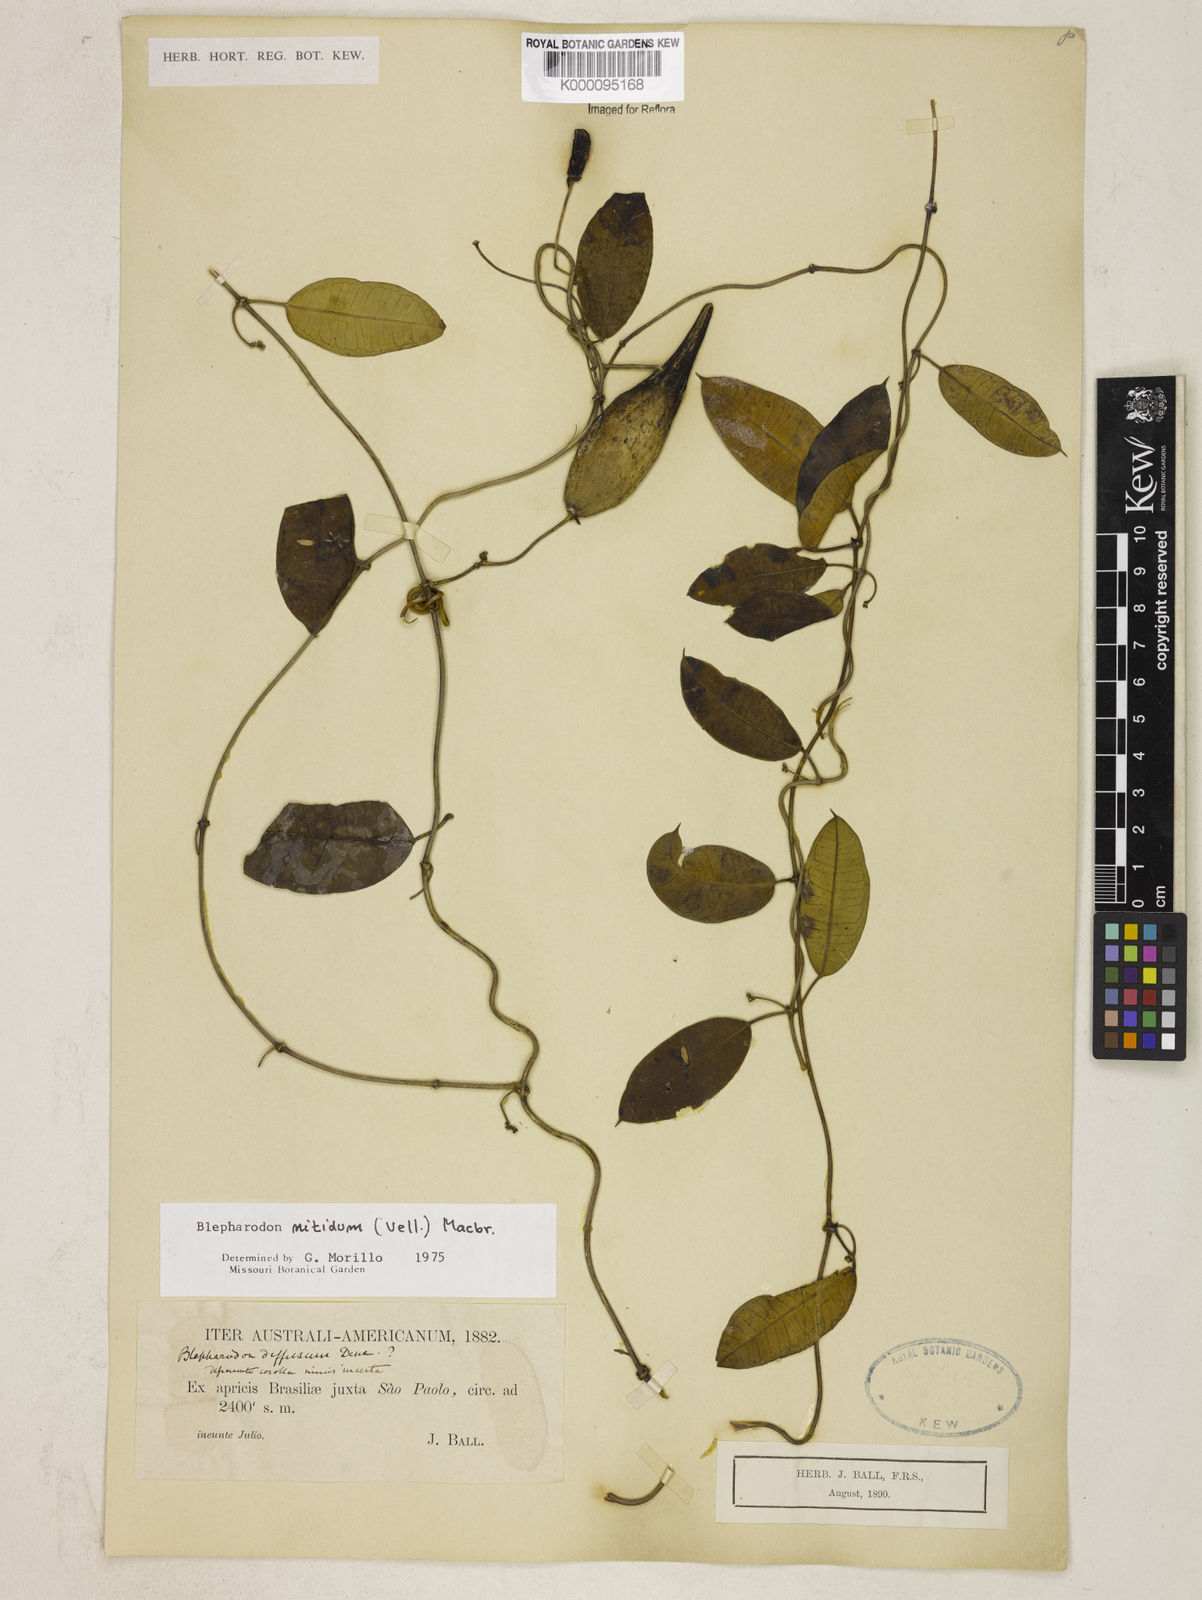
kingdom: Plantae
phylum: Tracheophyta
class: Magnoliopsida
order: Gentianales
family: Apocynaceae
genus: Blepharodon
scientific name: Blepharodon pictum
